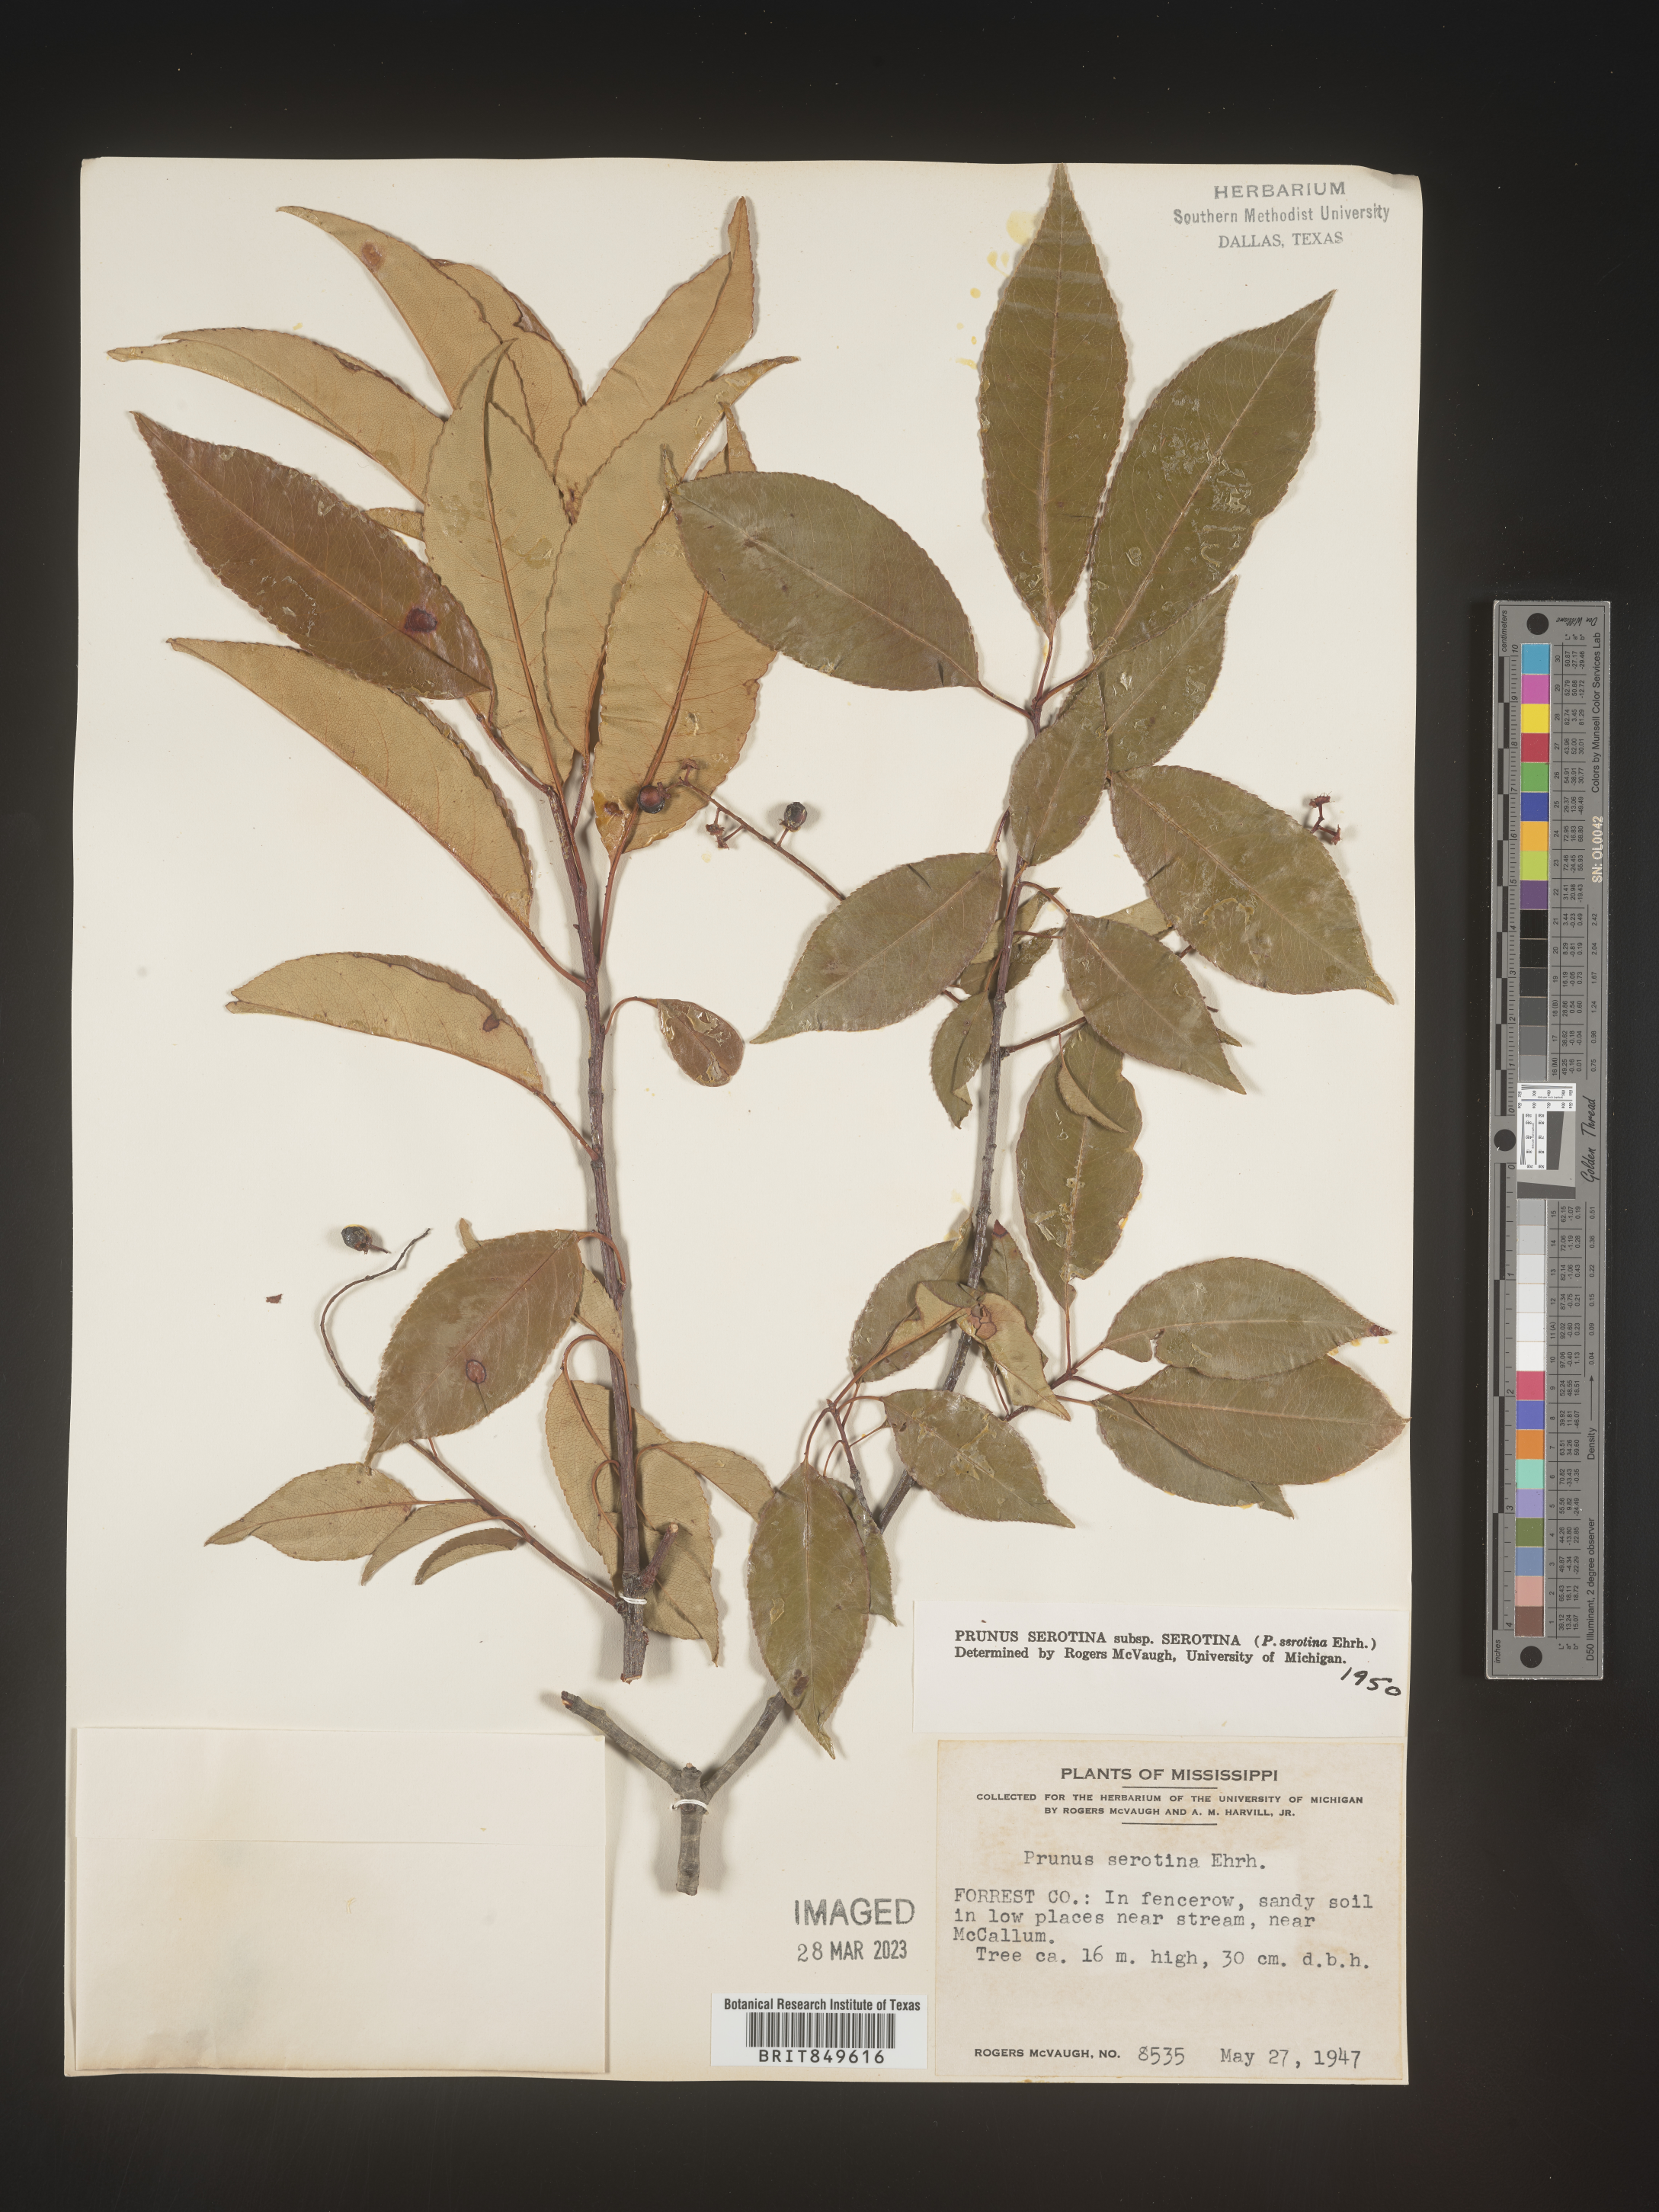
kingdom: Plantae
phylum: Tracheophyta
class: Magnoliopsida
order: Rosales
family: Rosaceae
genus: Prunus
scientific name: Prunus serotina
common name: Black cherry
